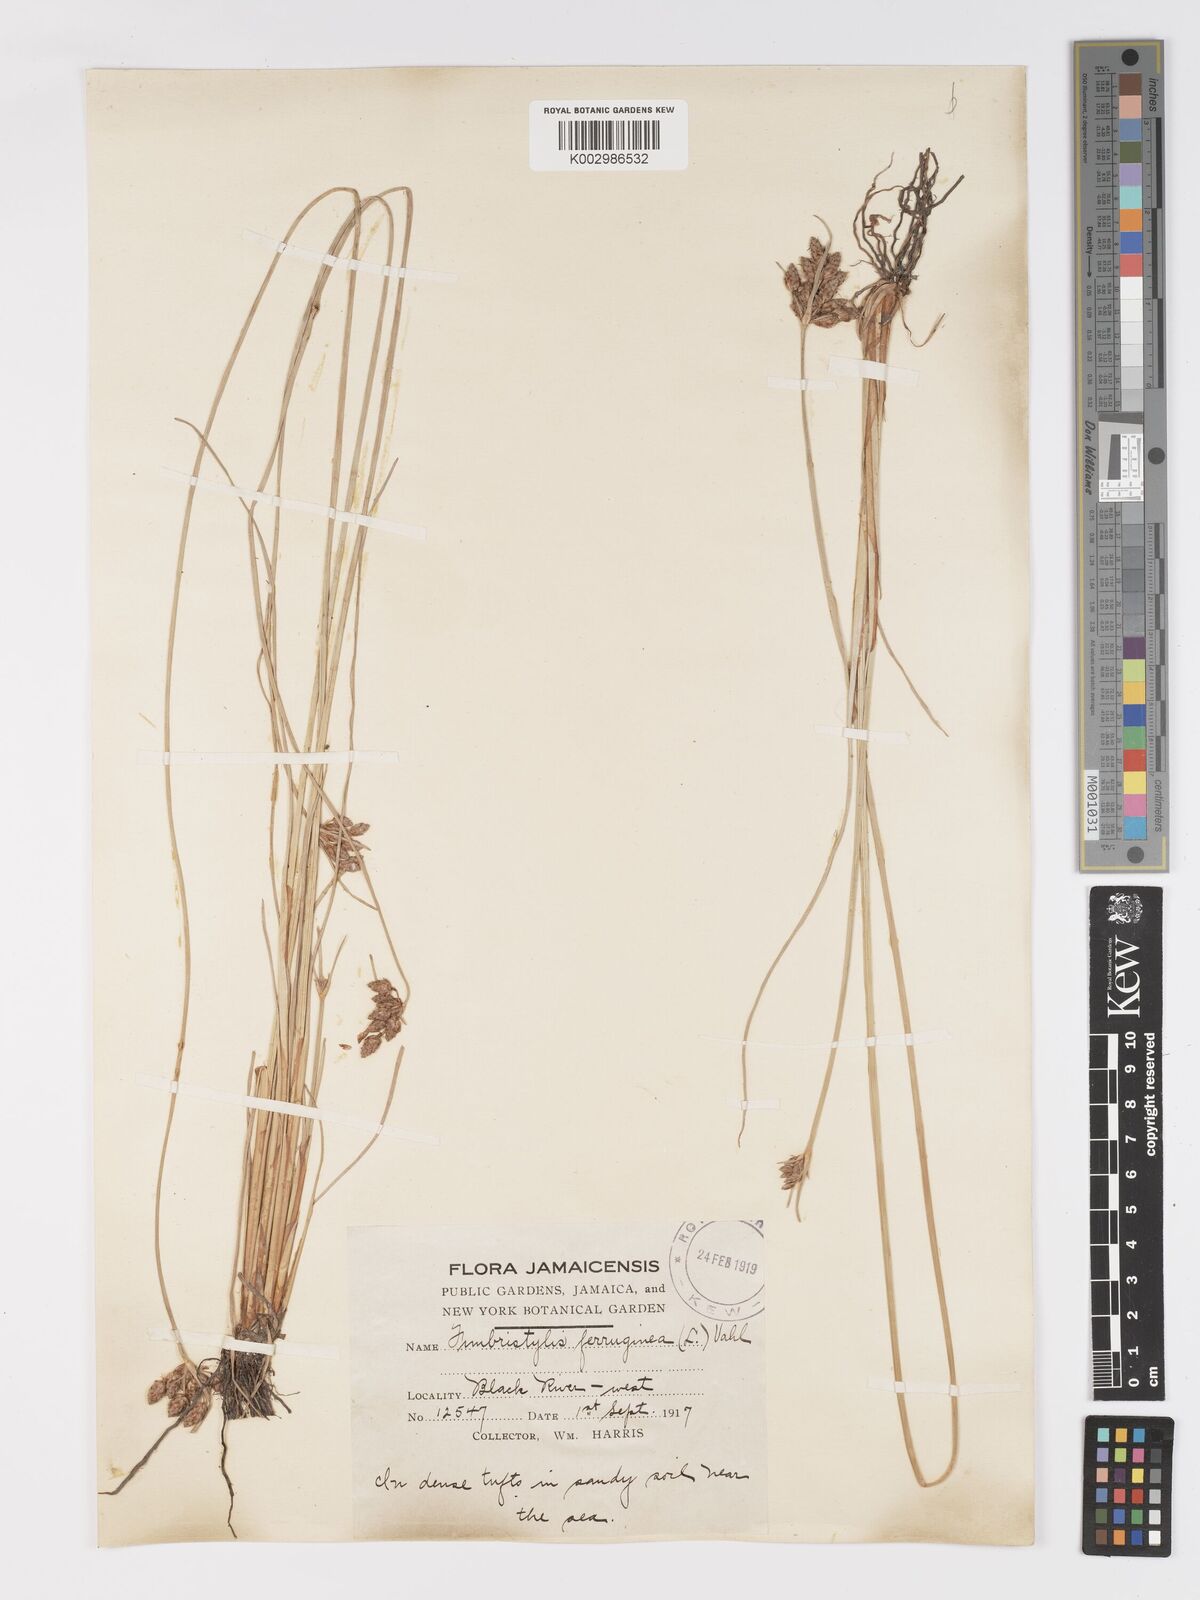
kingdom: Plantae
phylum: Tracheophyta
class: Liliopsida
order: Poales
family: Cyperaceae
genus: Fimbristylis
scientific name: Fimbristylis ferruginea
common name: West indian fimbry
